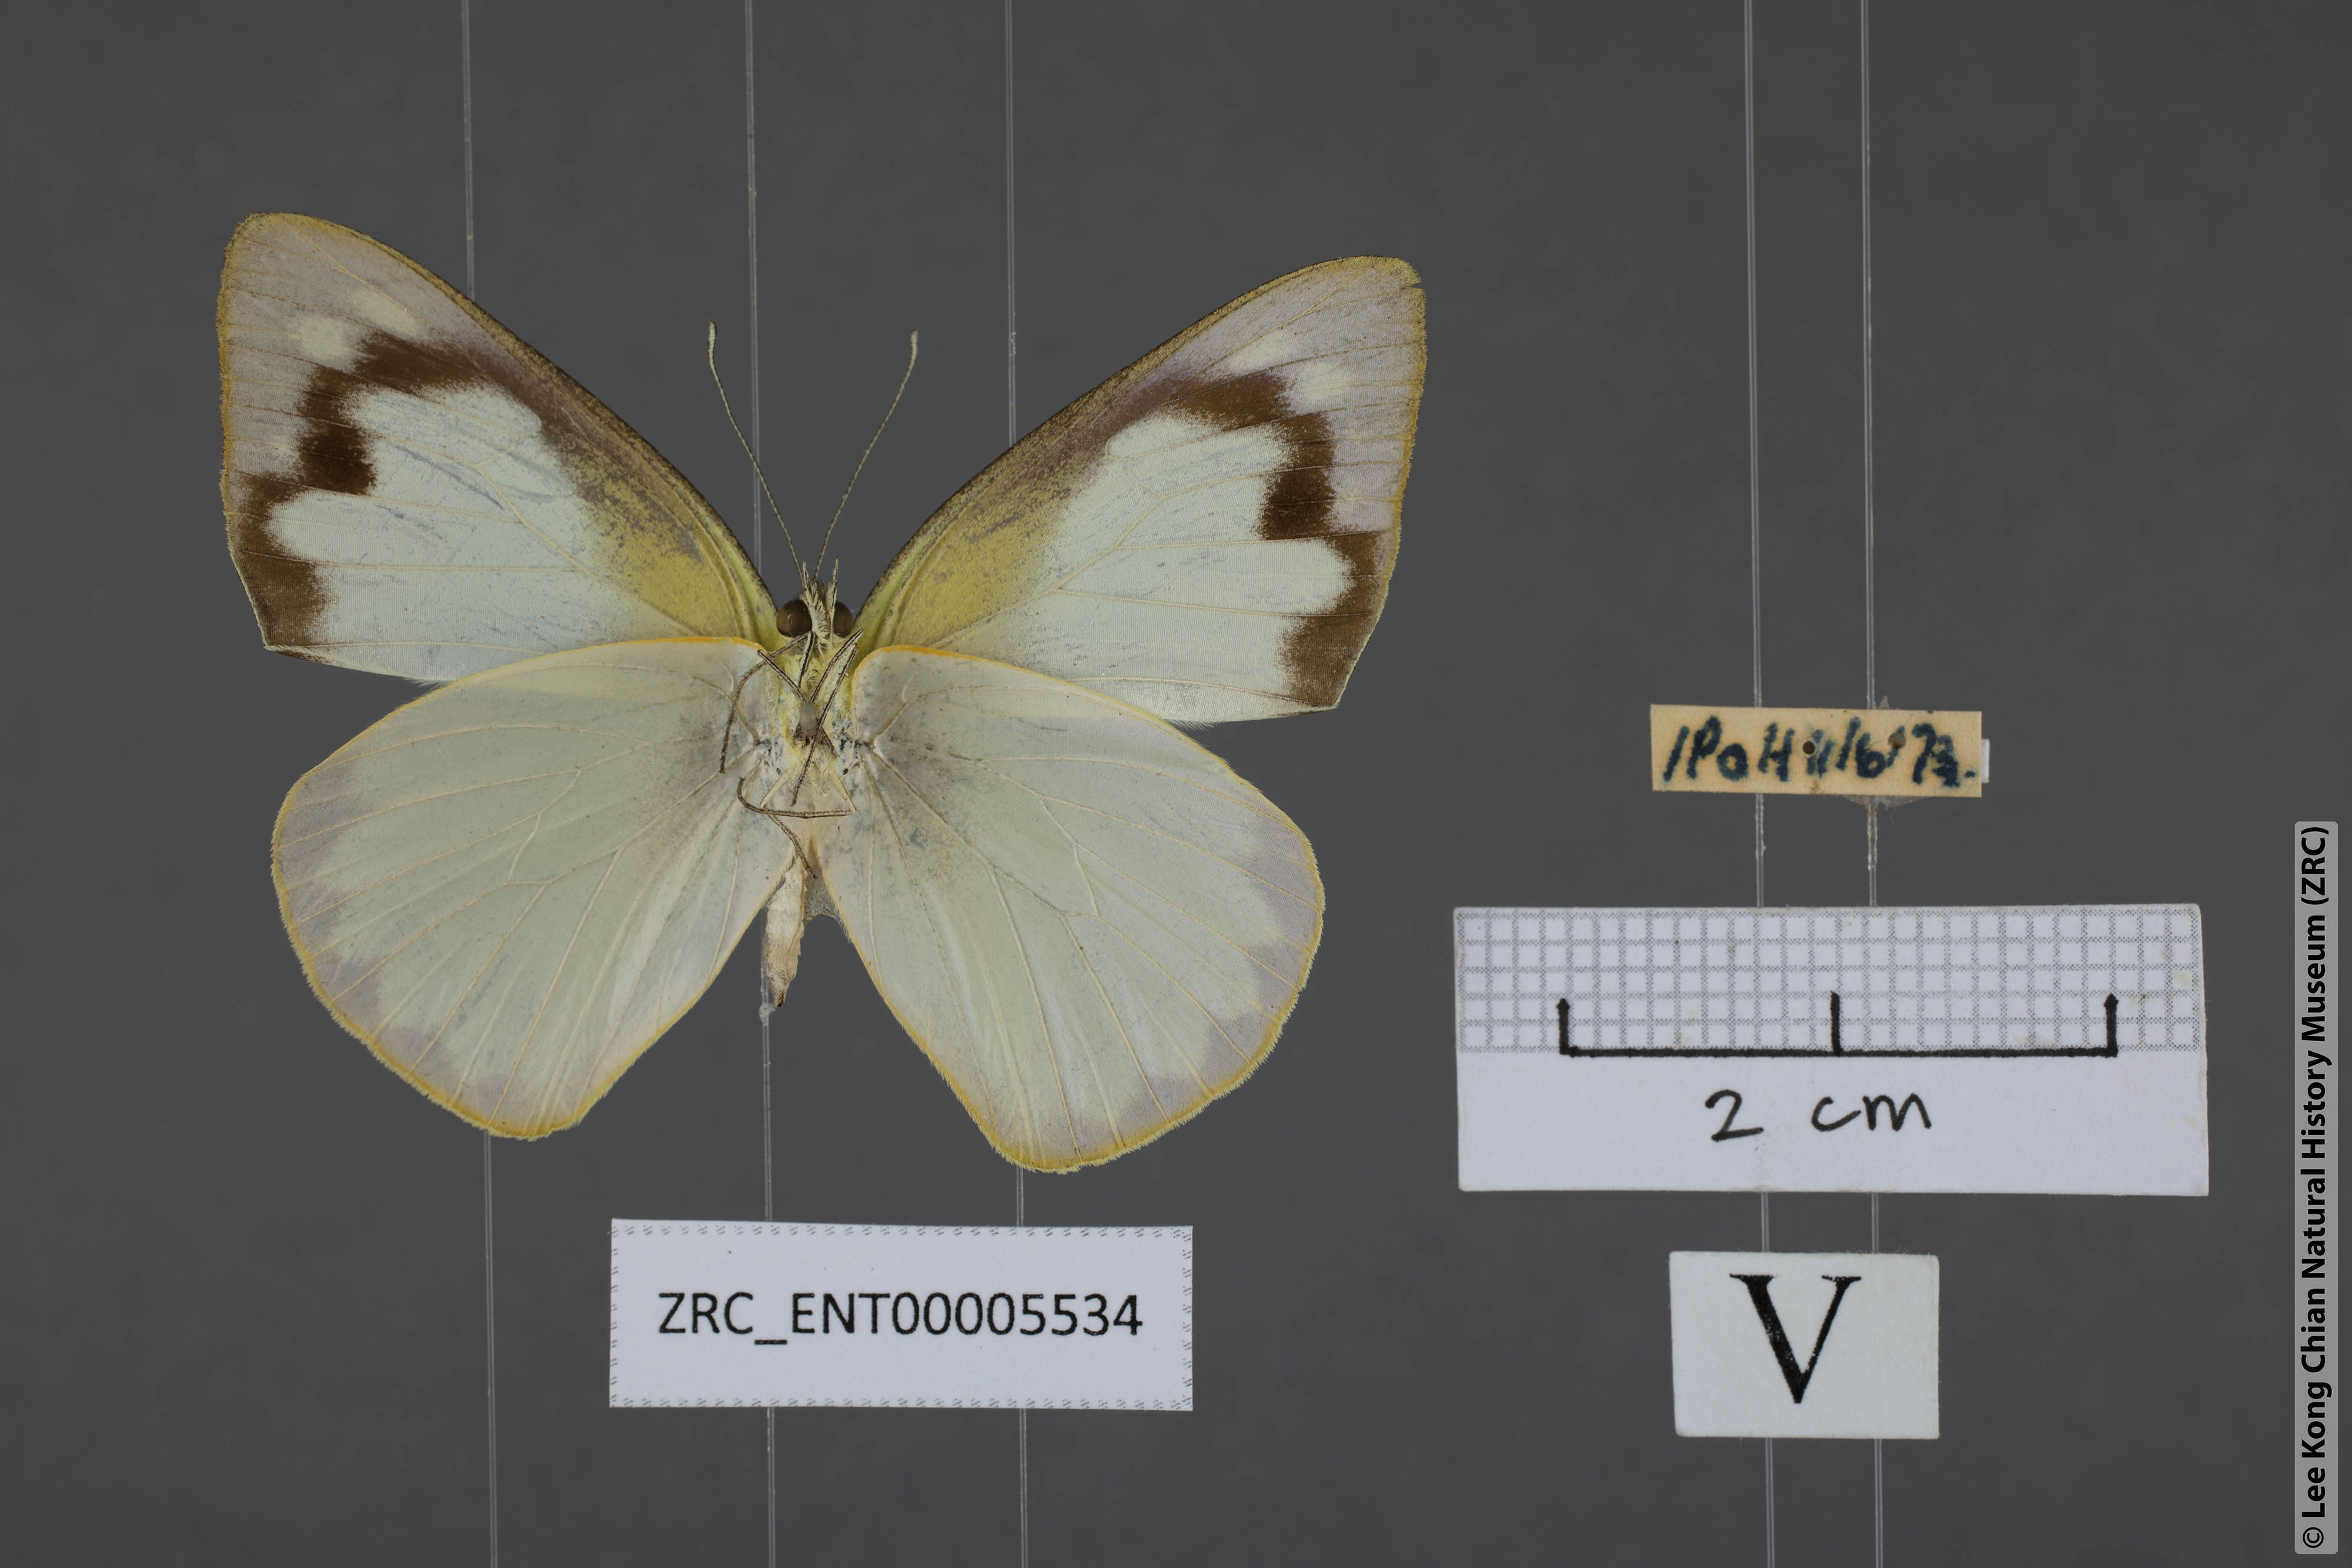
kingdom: Animalia
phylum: Arthropoda
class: Insecta
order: Lepidoptera
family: Pieridae
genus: Appias
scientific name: Appias albina
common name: Common albatross
